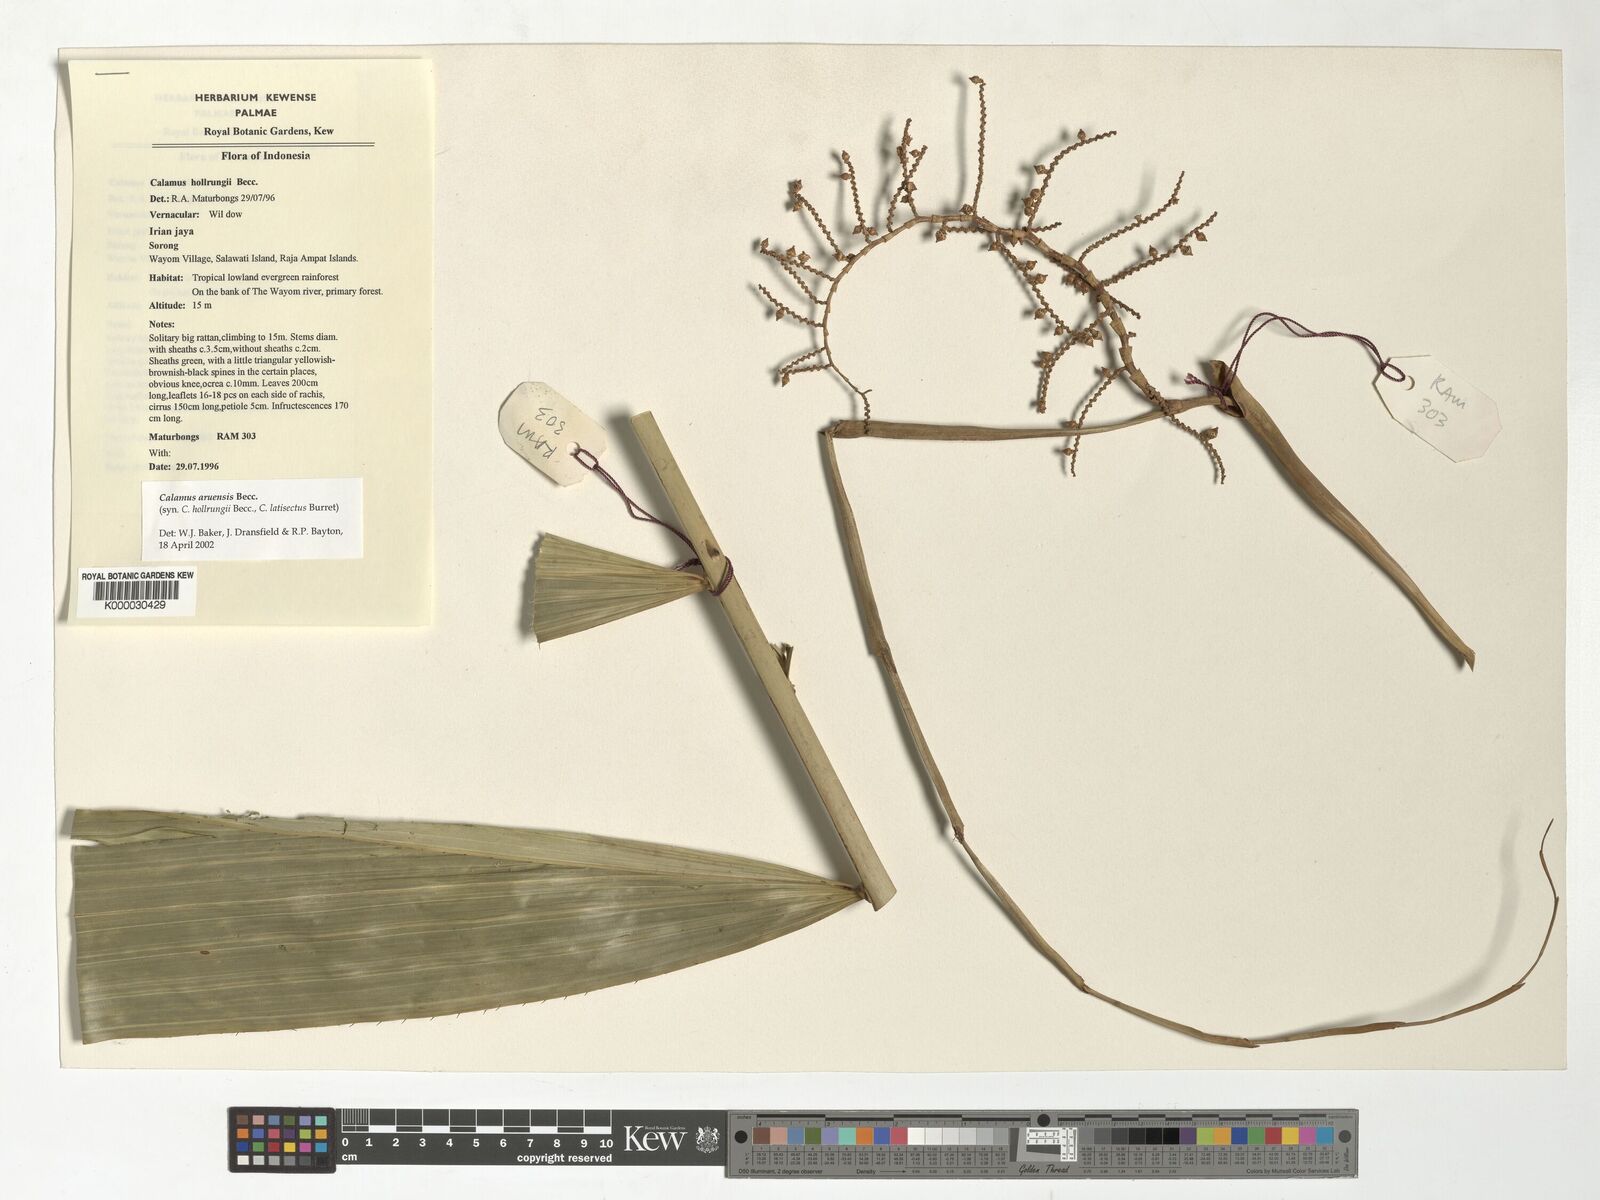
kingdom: Plantae
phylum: Tracheophyta
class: Liliopsida
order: Arecales
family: Arecaceae
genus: Calamus
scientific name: Calamus aruensis
